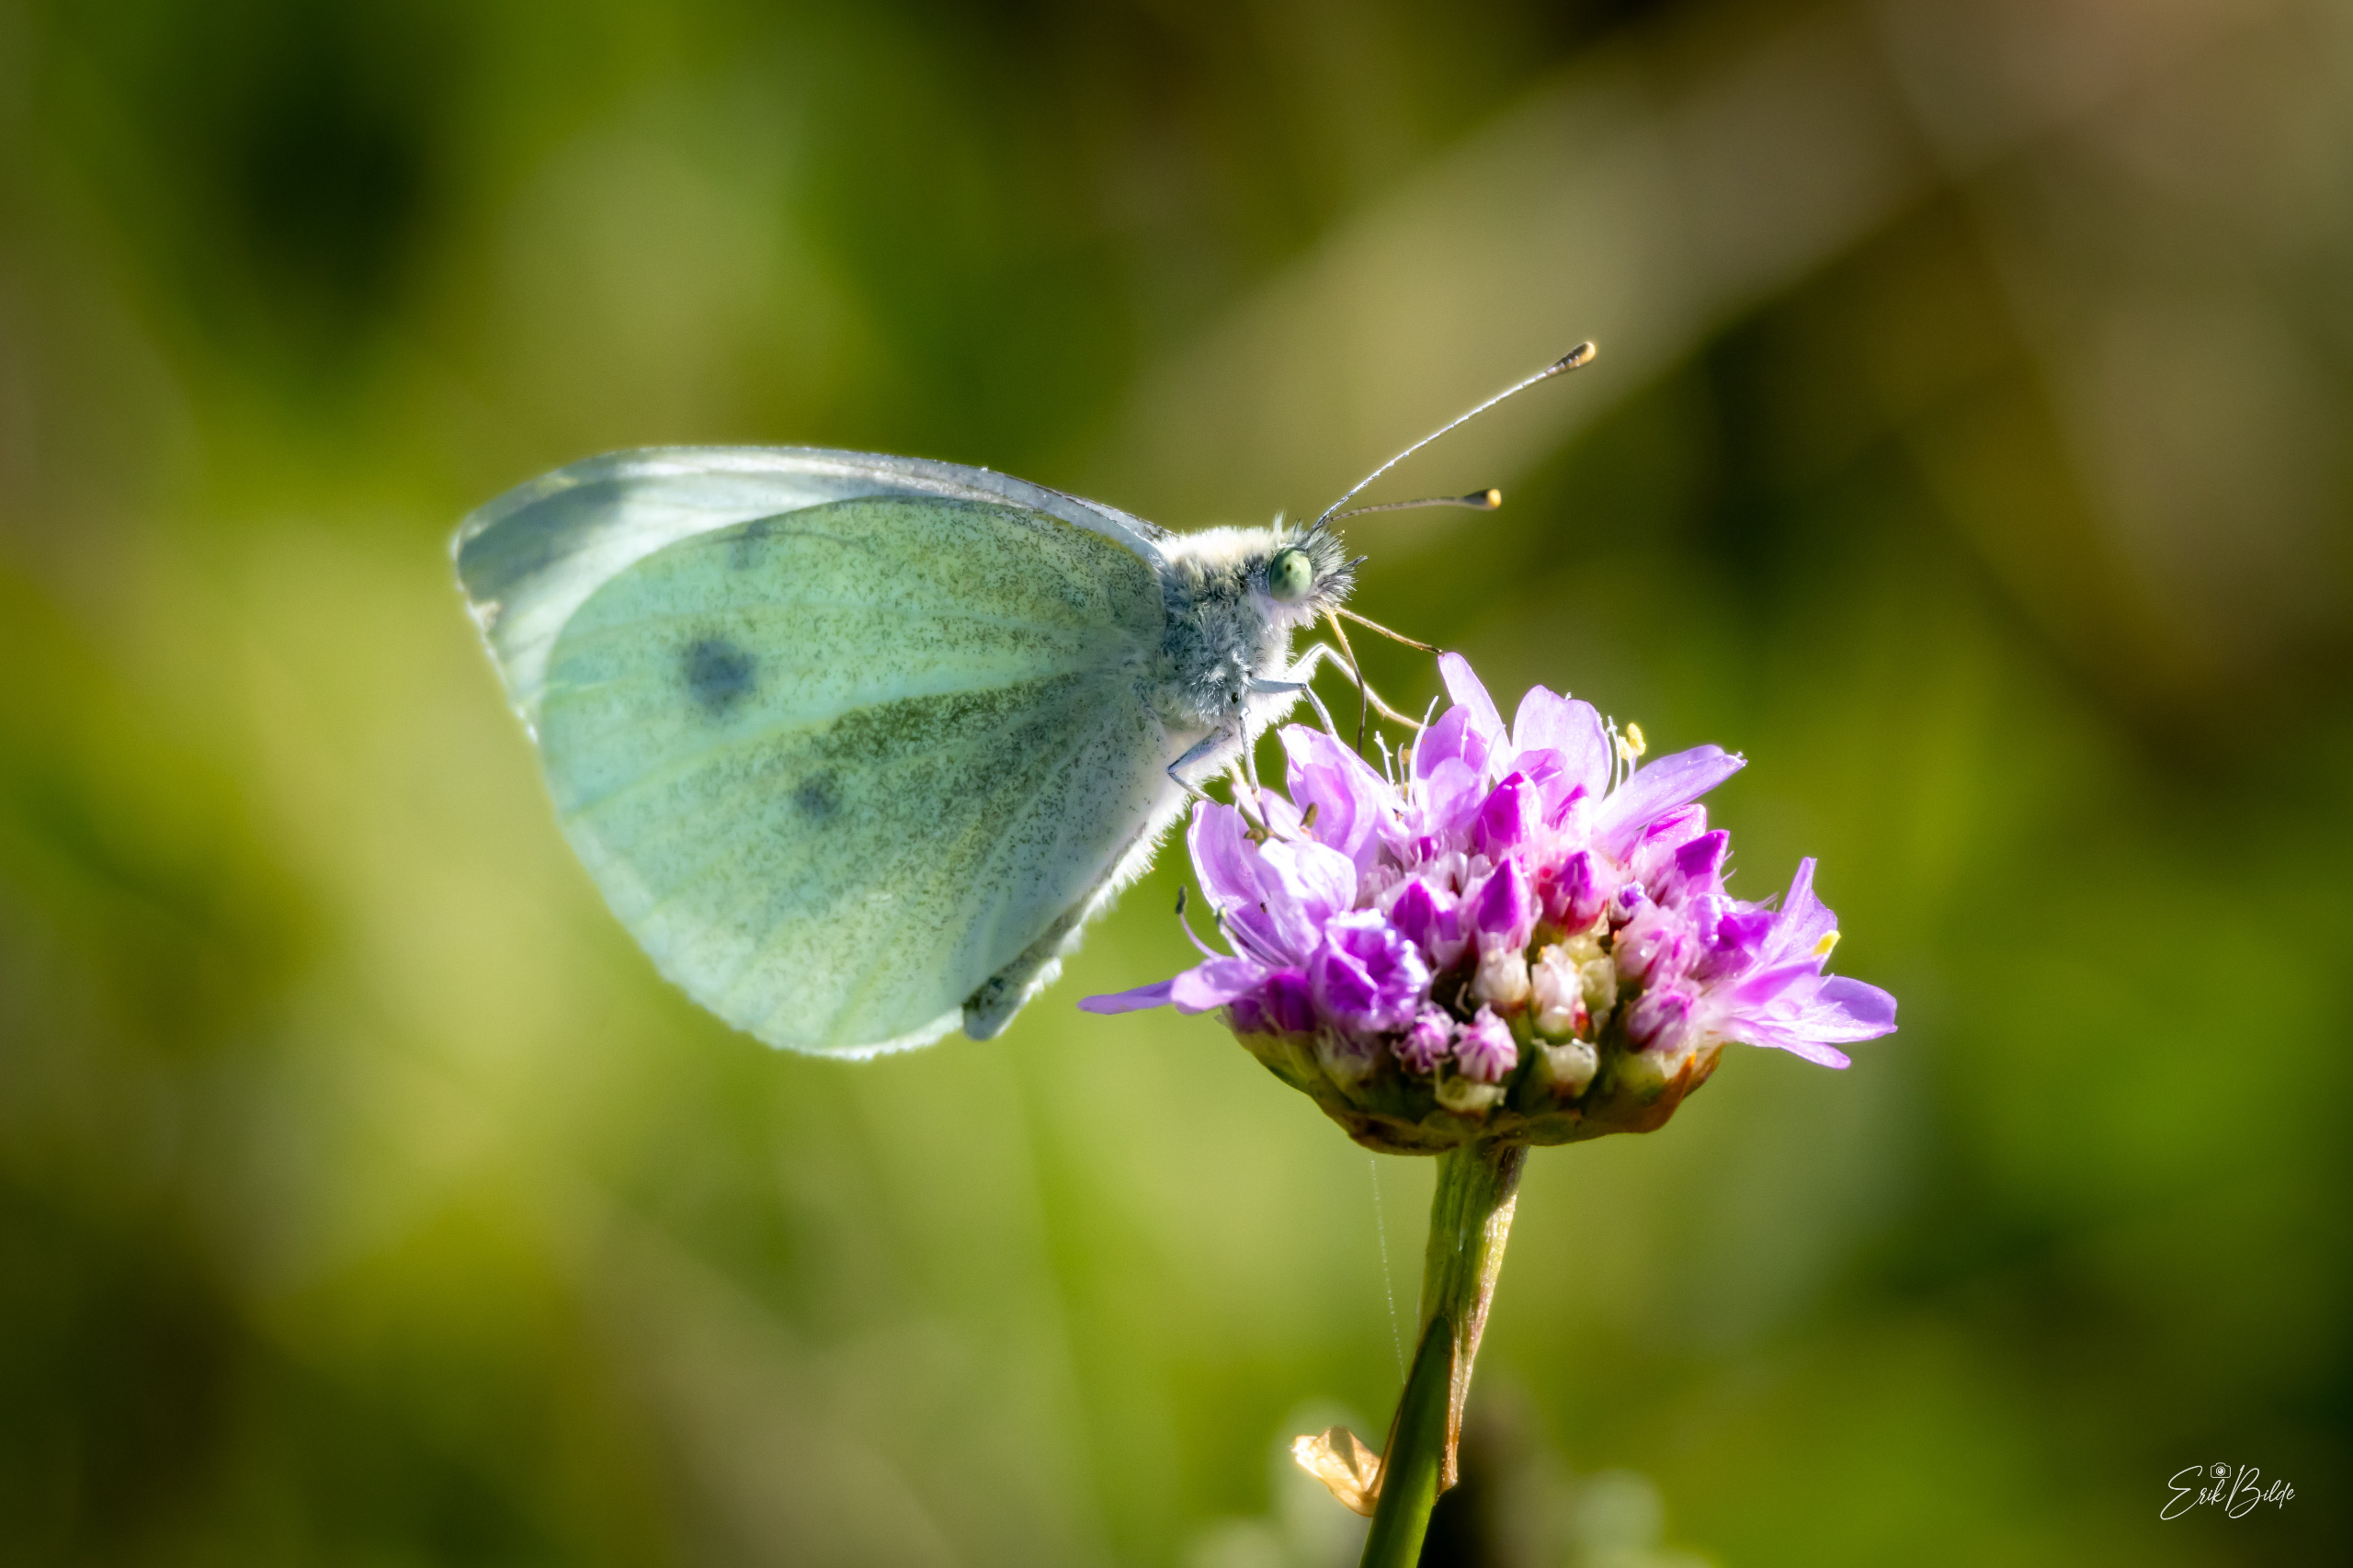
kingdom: Animalia
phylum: Arthropoda
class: Insecta
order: Lepidoptera
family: Pieridae
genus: Pieris
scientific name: Pieris rapae
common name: Lille kålsommerfugl
